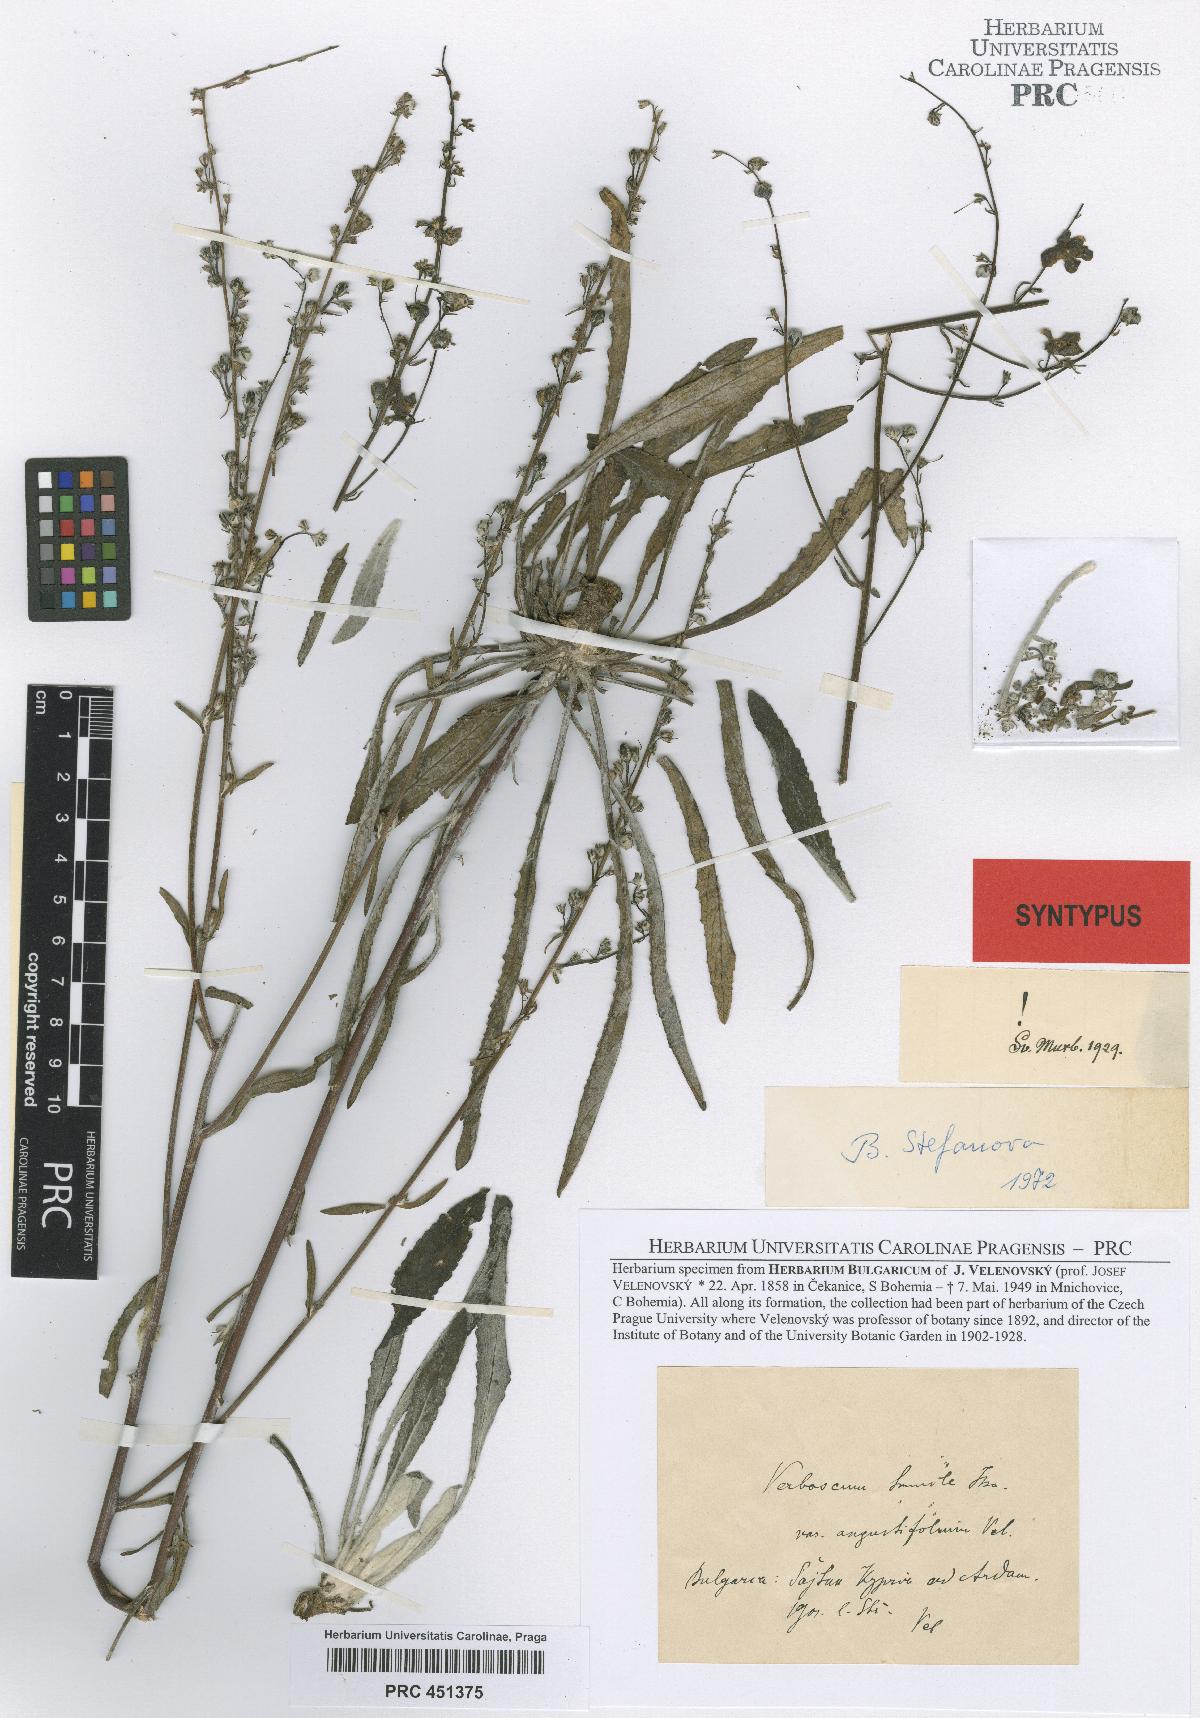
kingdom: Plantae
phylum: Tracheophyta
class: Magnoliopsida
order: Lamiales
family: Scrophulariaceae
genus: Verbascum
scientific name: Verbascum humile
